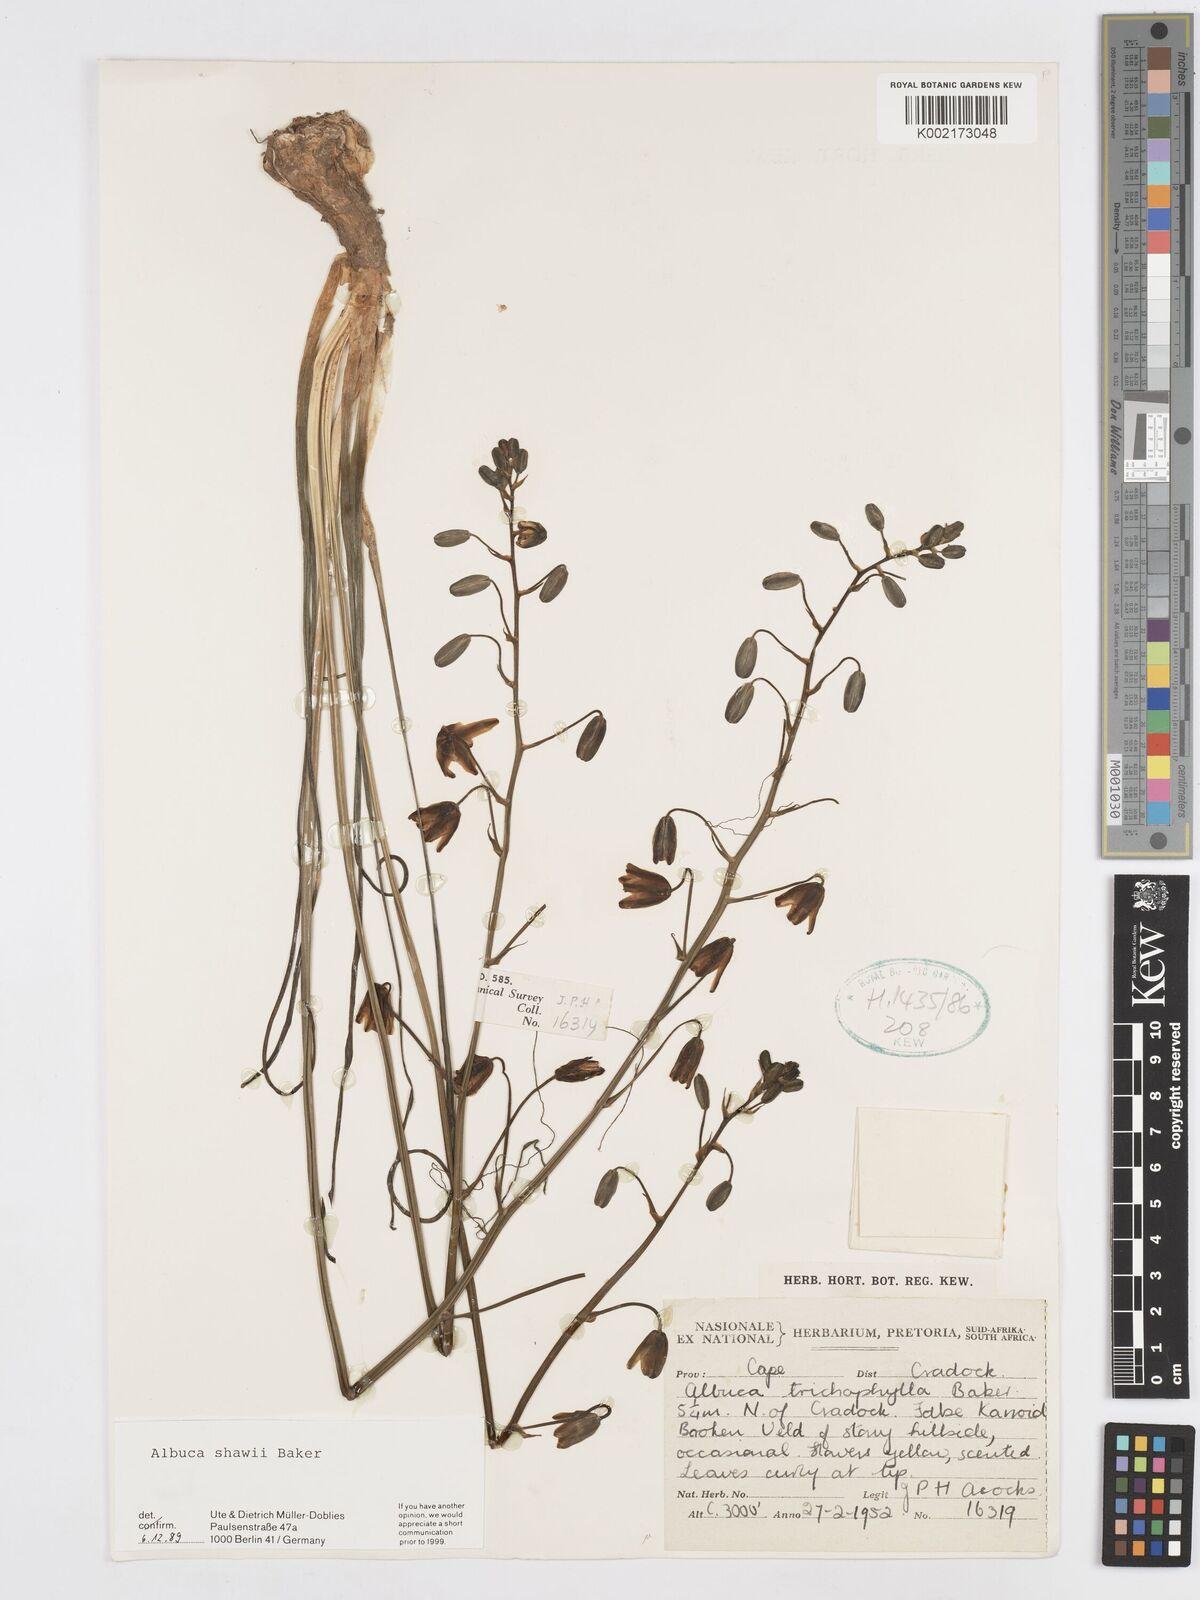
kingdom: Plantae
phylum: Tracheophyta
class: Liliopsida
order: Asparagales
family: Asparagaceae
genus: Albuca
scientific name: Albuca shawii
